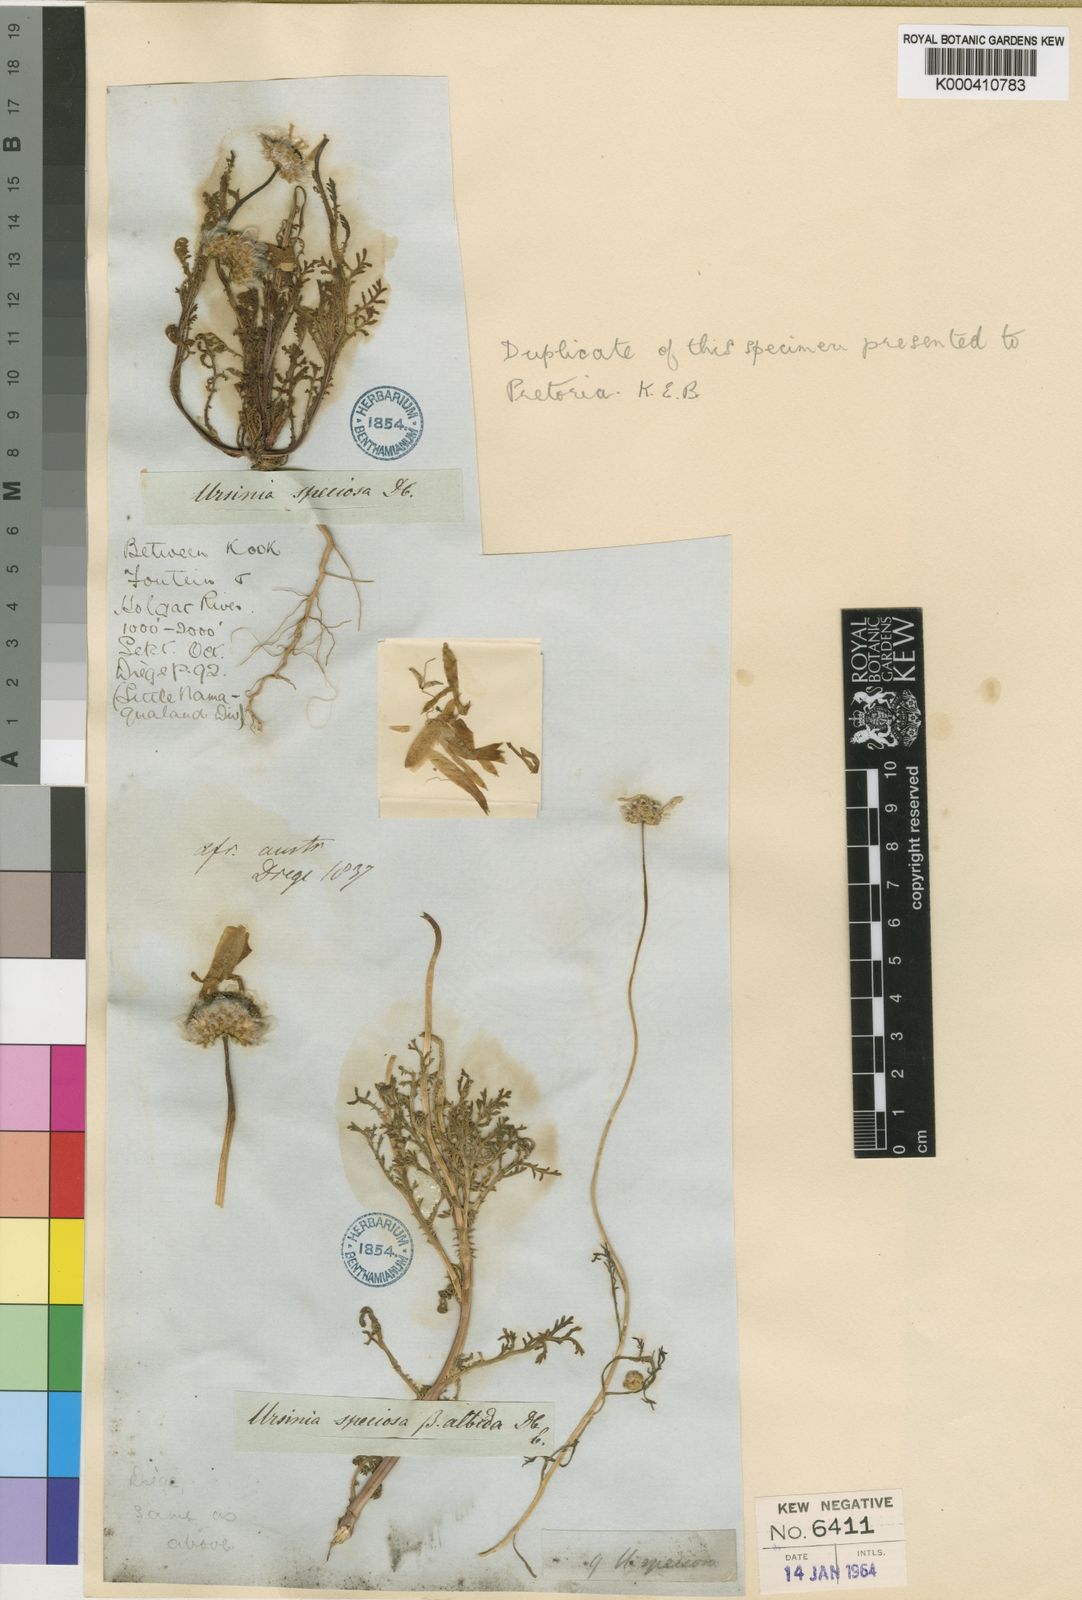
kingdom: Plantae
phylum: Tracheophyta
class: Magnoliopsida
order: Asterales
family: Asteraceae
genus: Ursinia
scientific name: Ursinia speciosa
